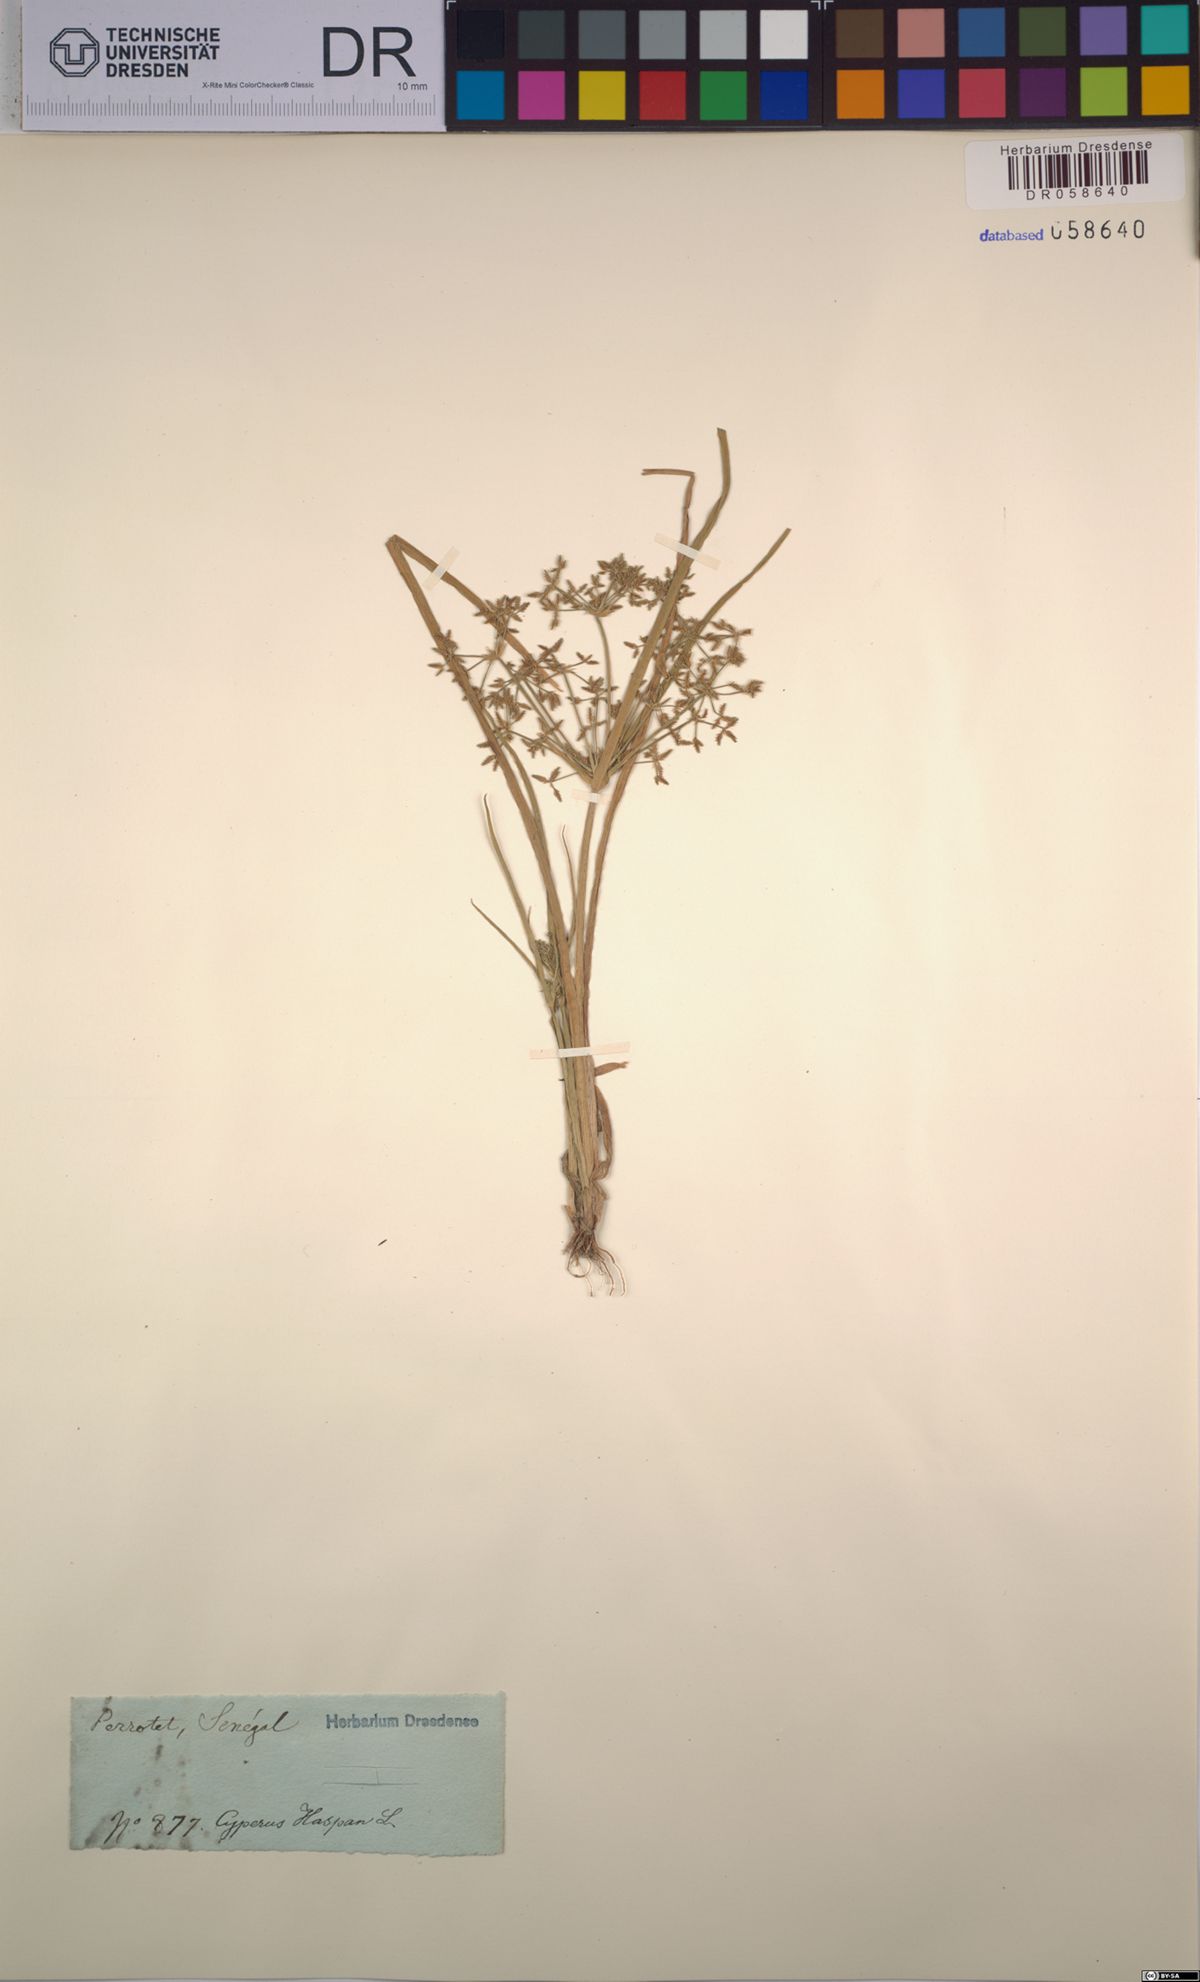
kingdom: Plantae
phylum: Tracheophyta
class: Liliopsida
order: Poales
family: Cyperaceae
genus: Cyperus
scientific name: Cyperus haspan
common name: Haspan flatsedge
